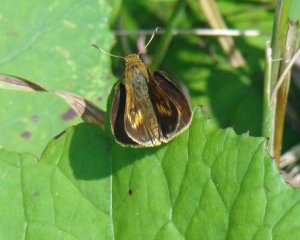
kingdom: Animalia
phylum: Arthropoda
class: Insecta
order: Lepidoptera
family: Hesperiidae
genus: Euphyes
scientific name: Euphyes dion
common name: Dion Skipper
